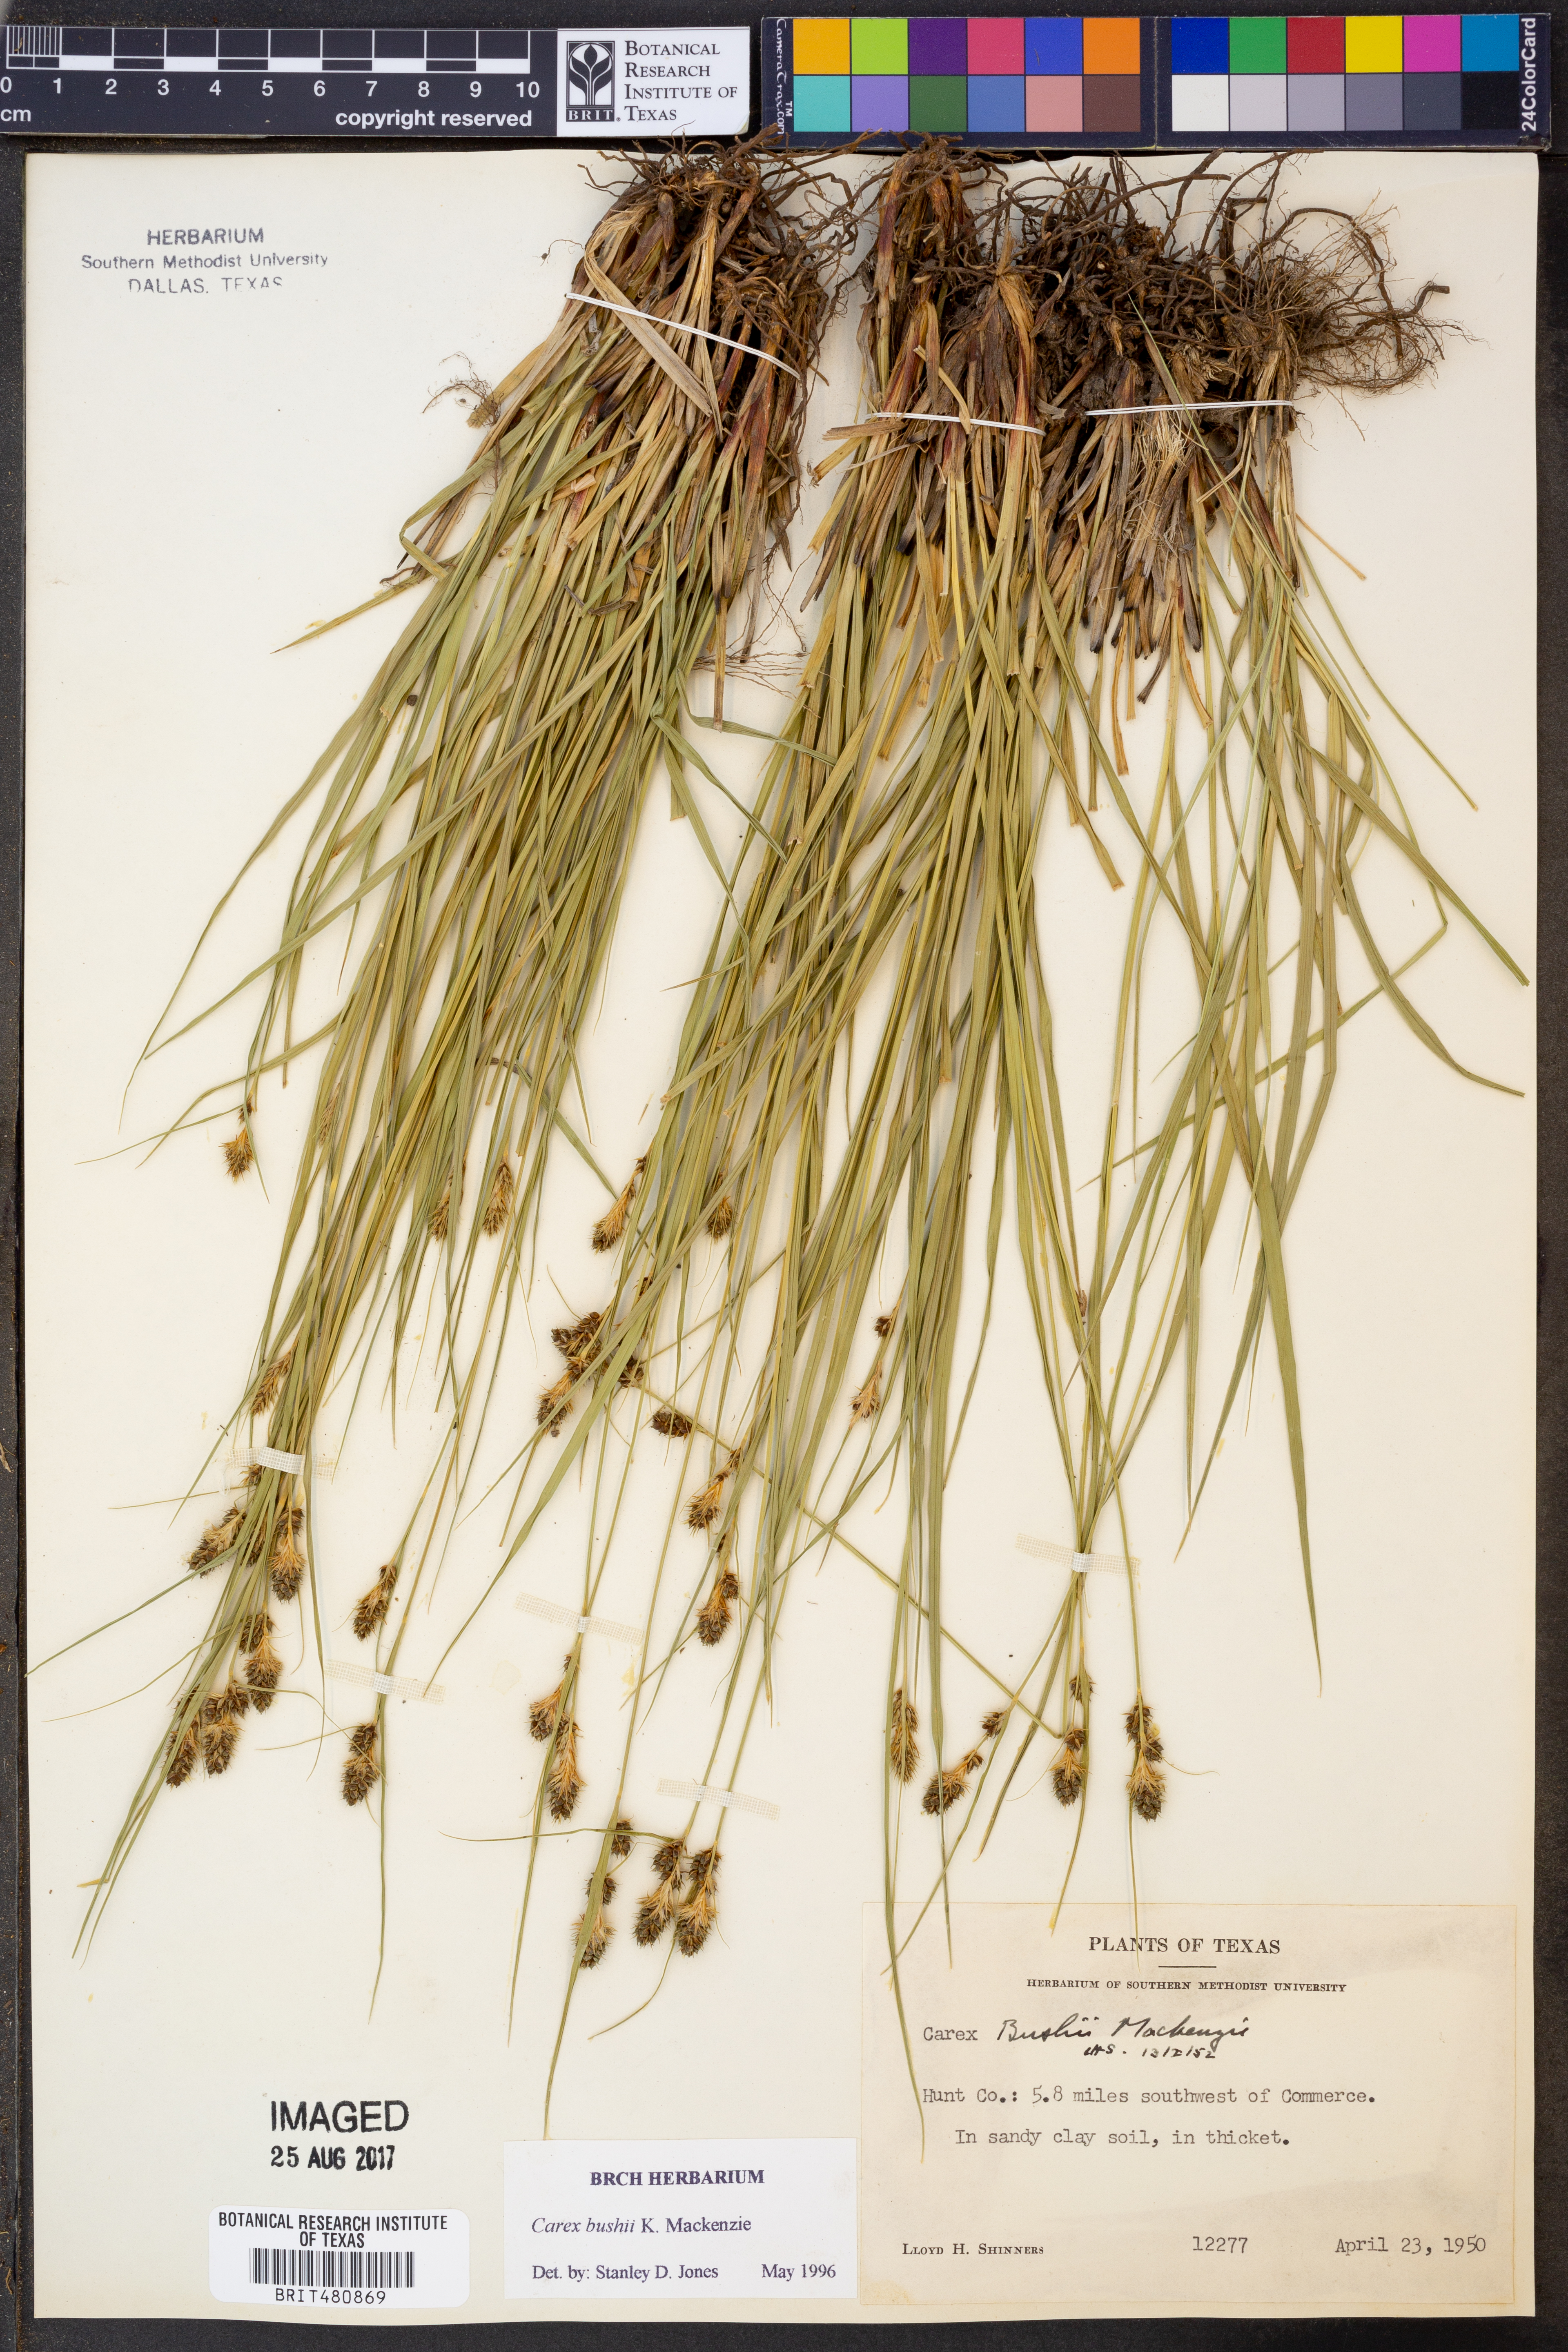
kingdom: Plantae
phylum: Tracheophyta
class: Liliopsida
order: Poales
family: Cyperaceae
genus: Carex
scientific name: Carex bushii
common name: Bush's sedge
